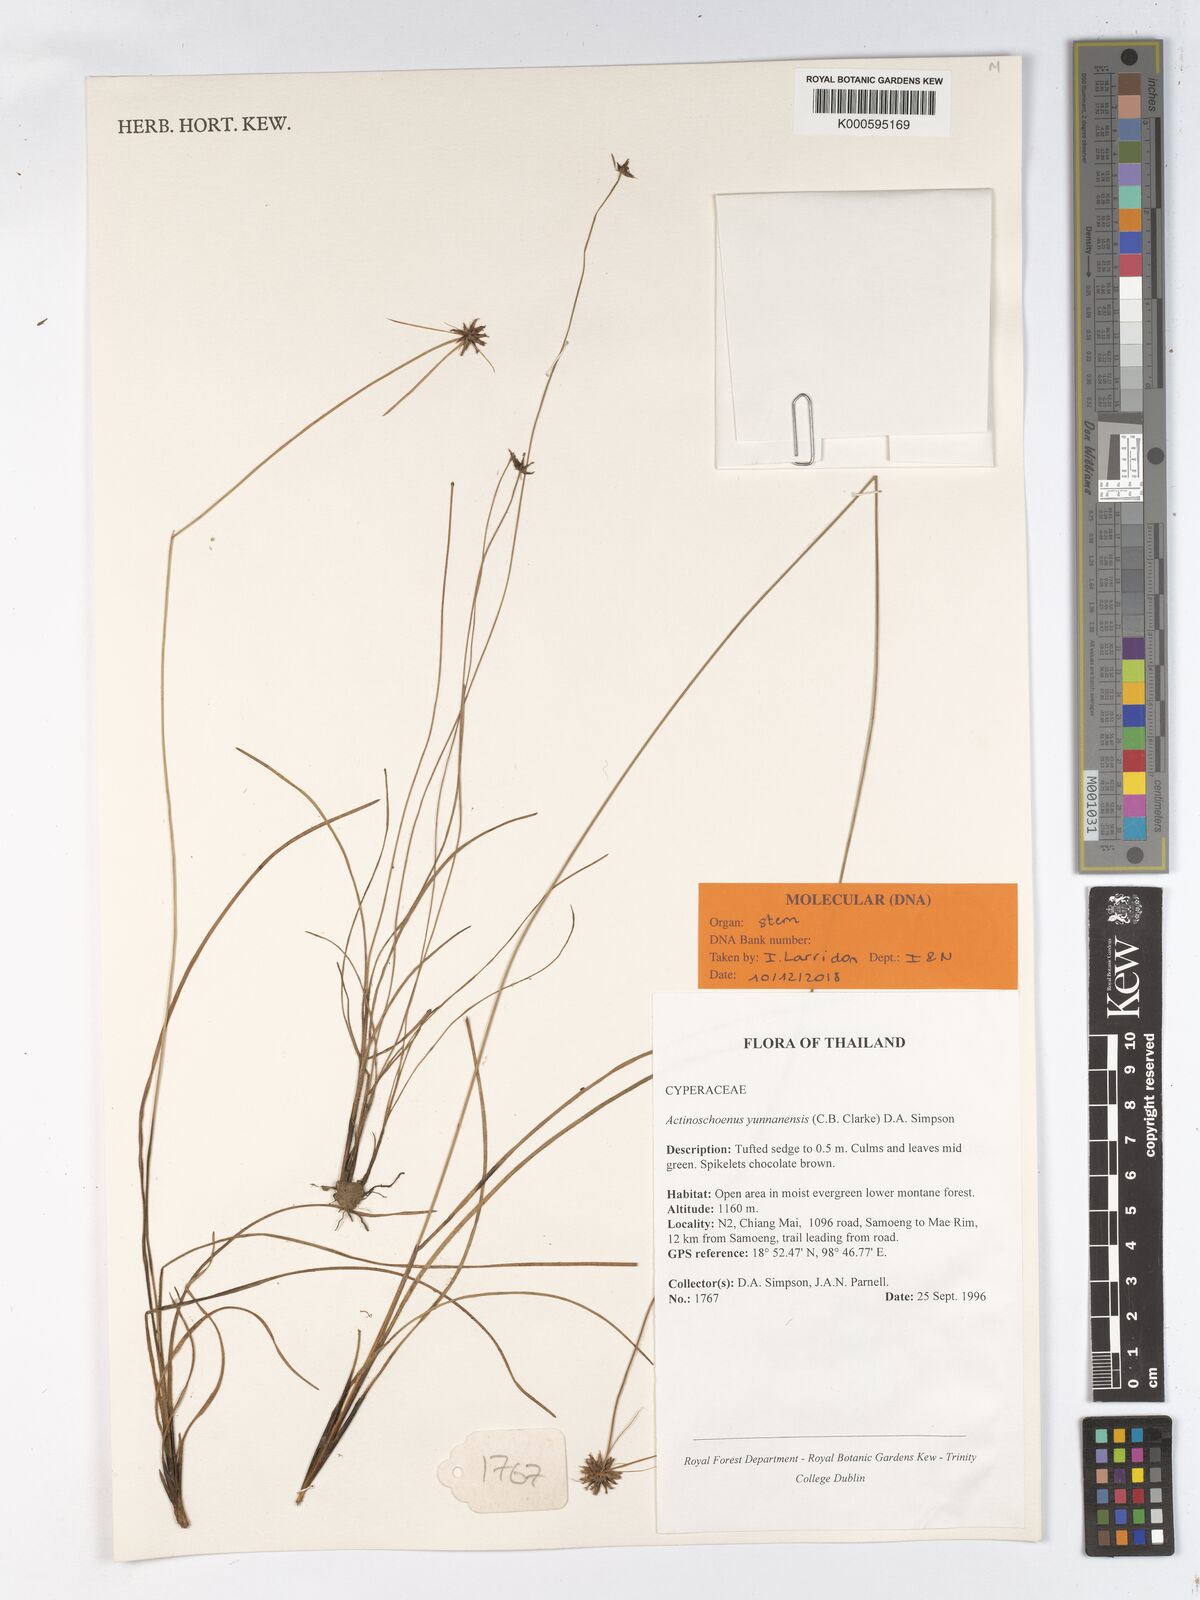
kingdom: Plantae
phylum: Tracheophyta
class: Liliopsida
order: Poales
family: Cyperaceae
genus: Actinoschoenus
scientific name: Actinoschoenus
